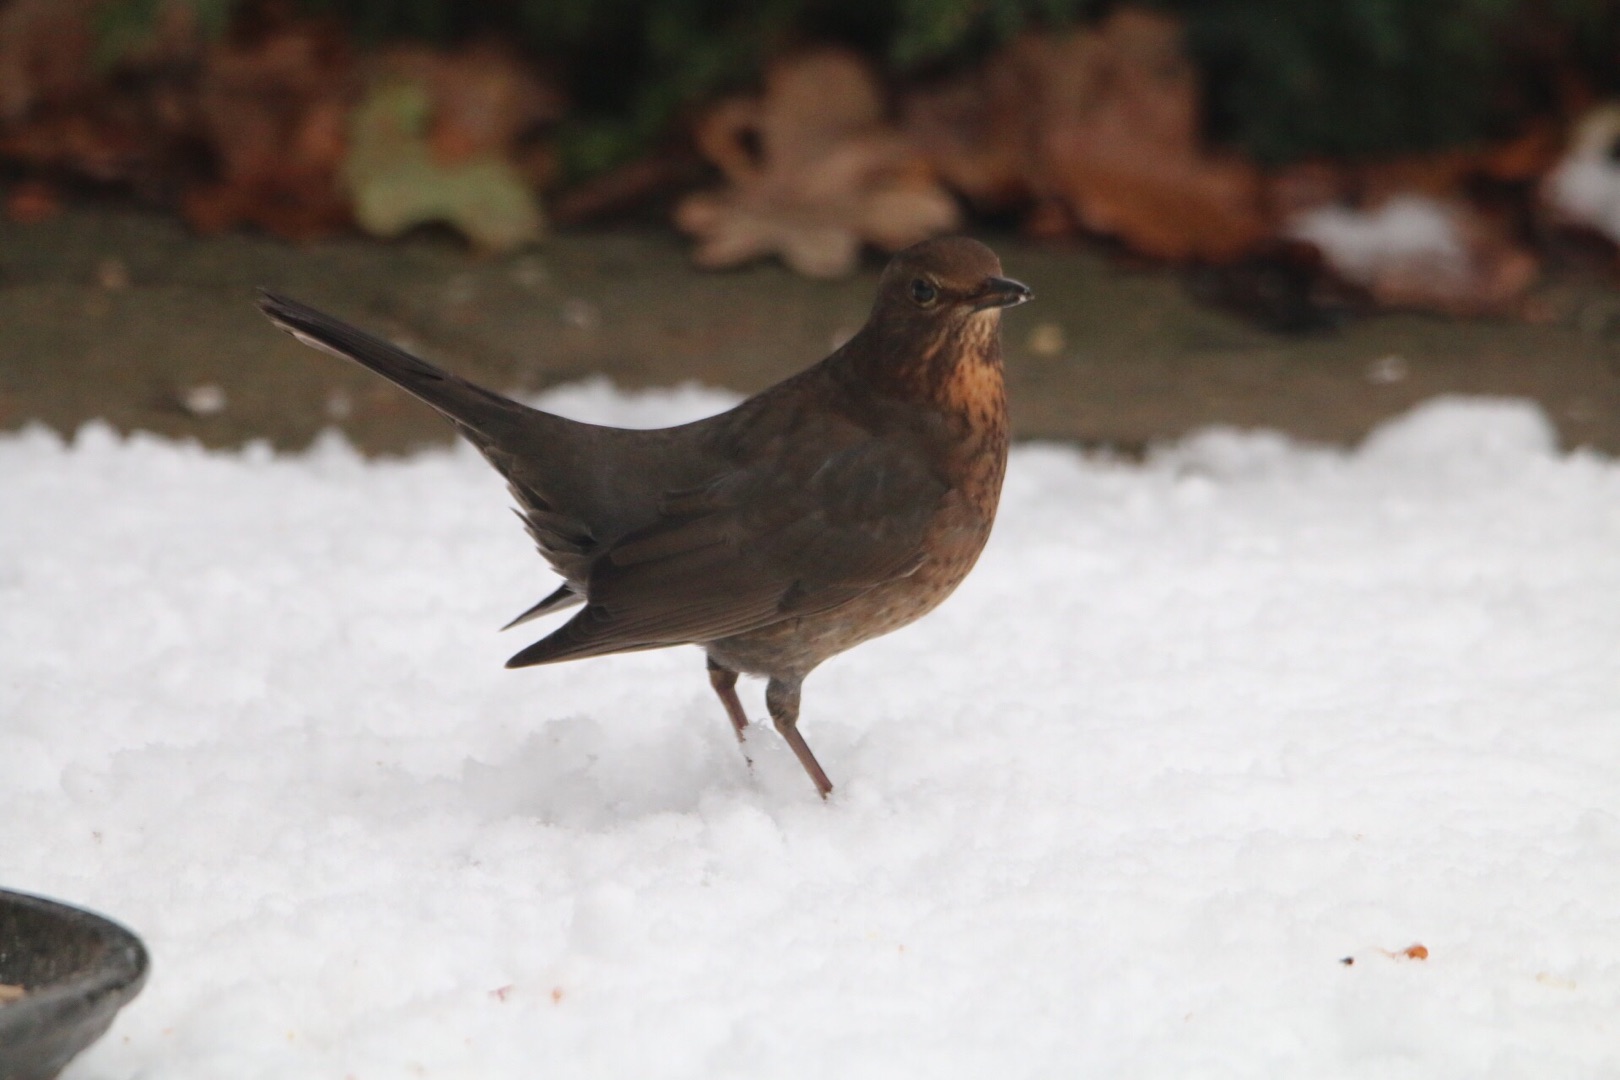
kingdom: Animalia
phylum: Chordata
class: Aves
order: Passeriformes
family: Turdidae
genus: Turdus
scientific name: Turdus merula
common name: Solsort
